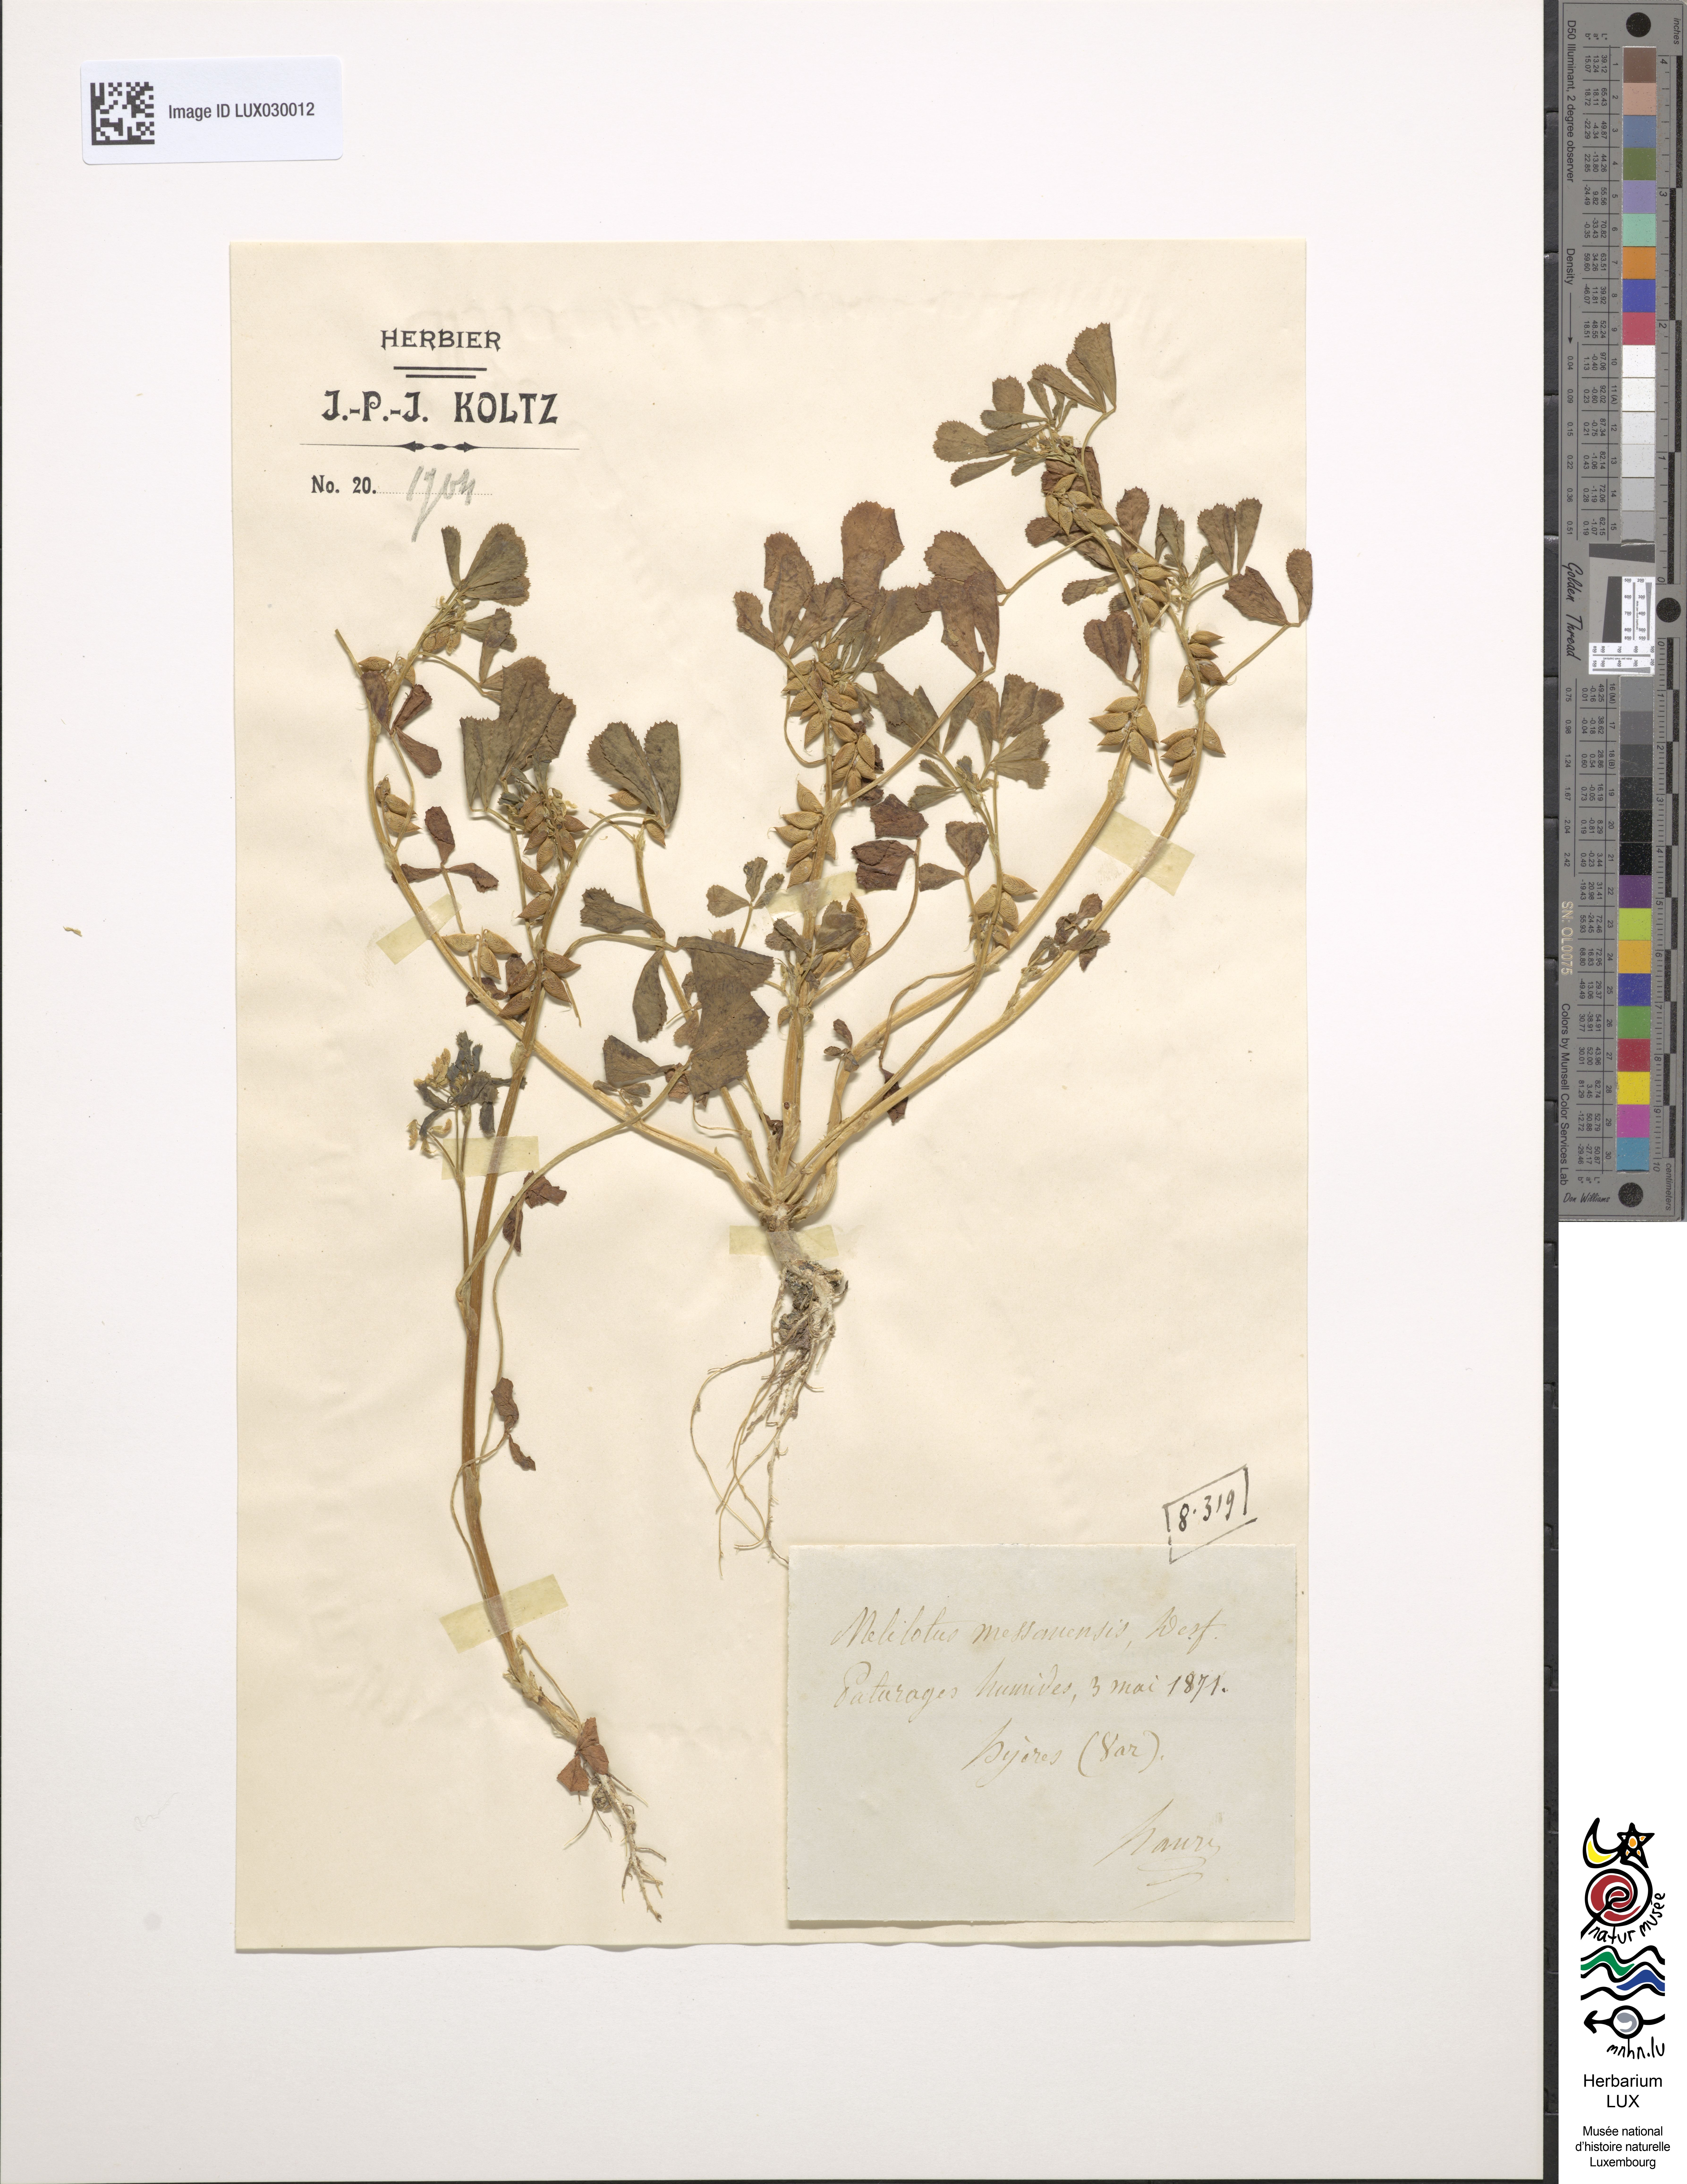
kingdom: Plantae
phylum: Tracheophyta
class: Magnoliopsida
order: Fabales
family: Fabaceae
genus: Melilotus
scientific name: Melilotus siculus
